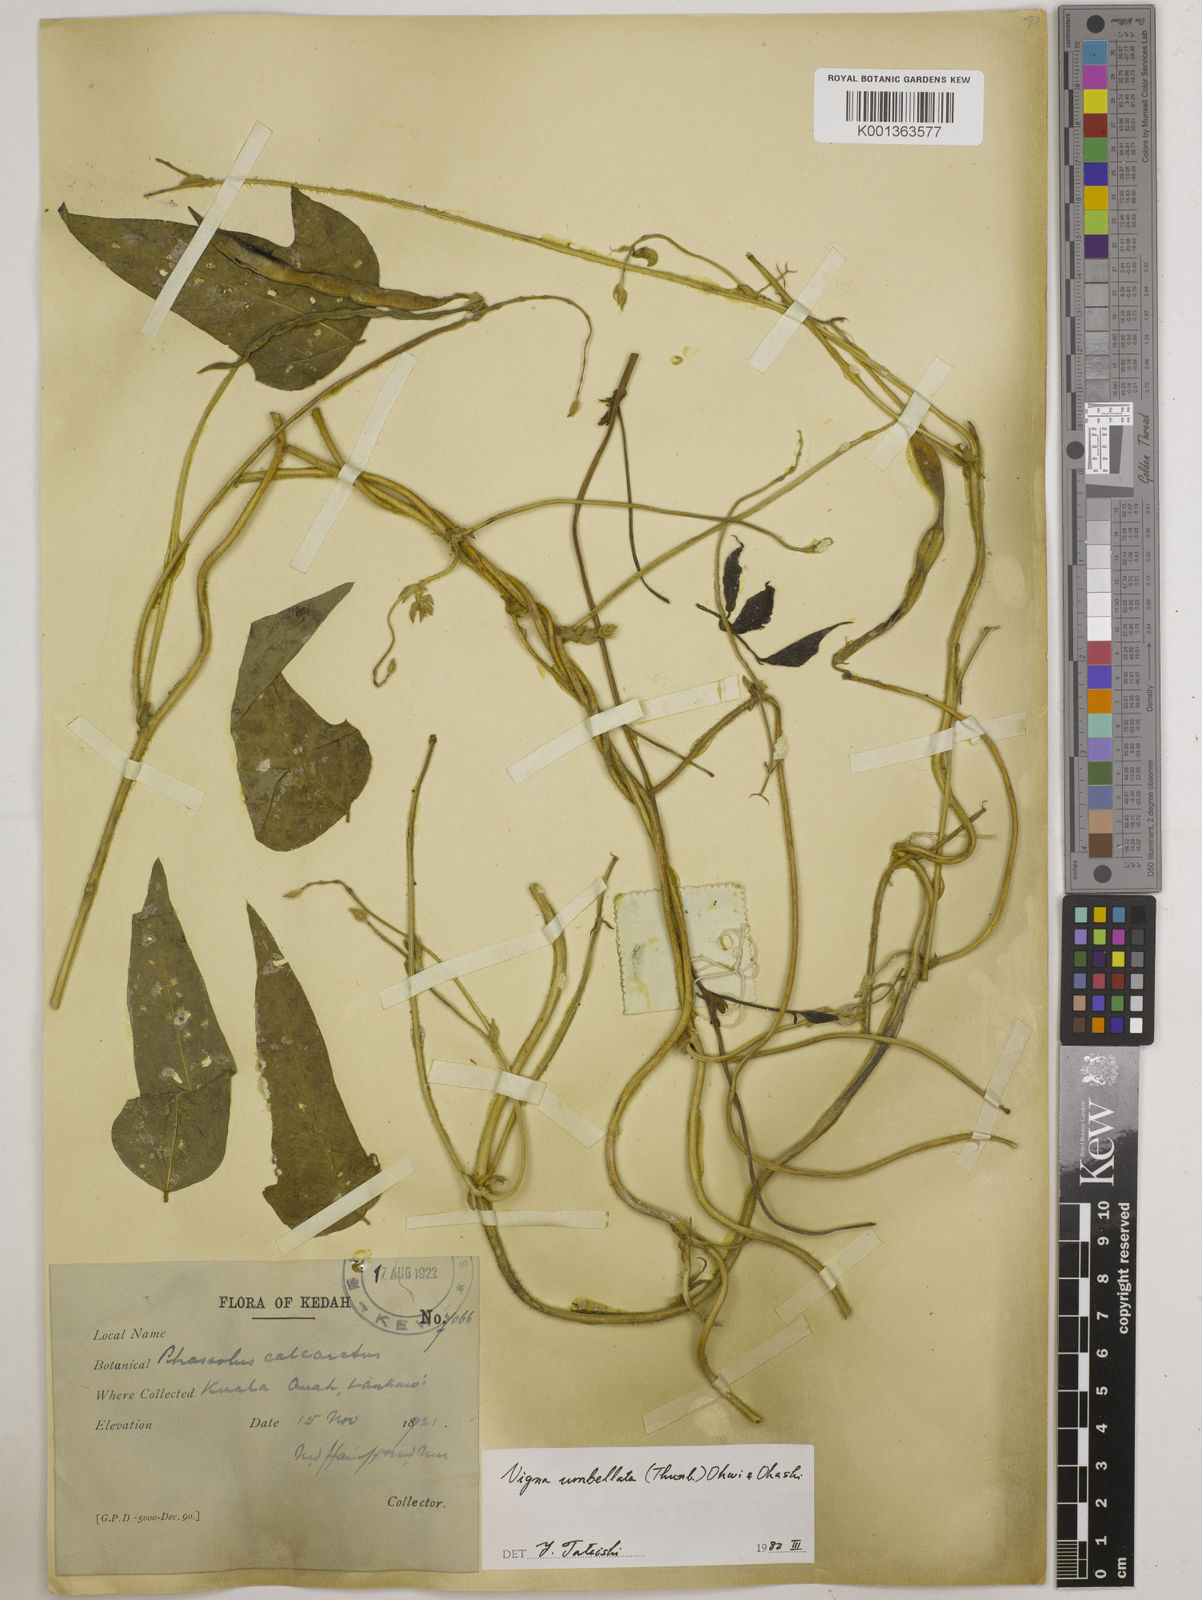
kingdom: Plantae
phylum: Tracheophyta
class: Magnoliopsida
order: Fabales
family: Fabaceae
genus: Vigna
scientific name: Vigna umbellata
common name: Oriental-bean
